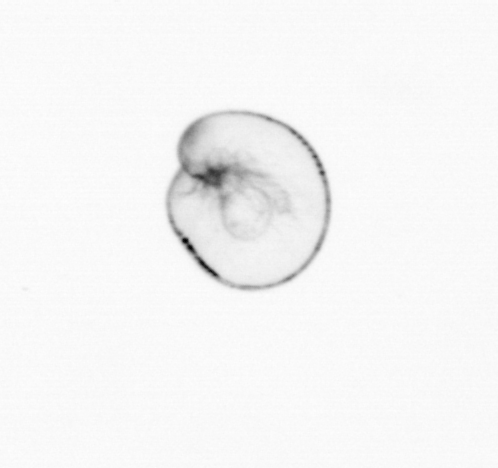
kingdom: Chromista
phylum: Myzozoa
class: Dinophyceae
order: Noctilucales
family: Noctilucaceae
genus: Noctiluca
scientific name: Noctiluca scintillans
